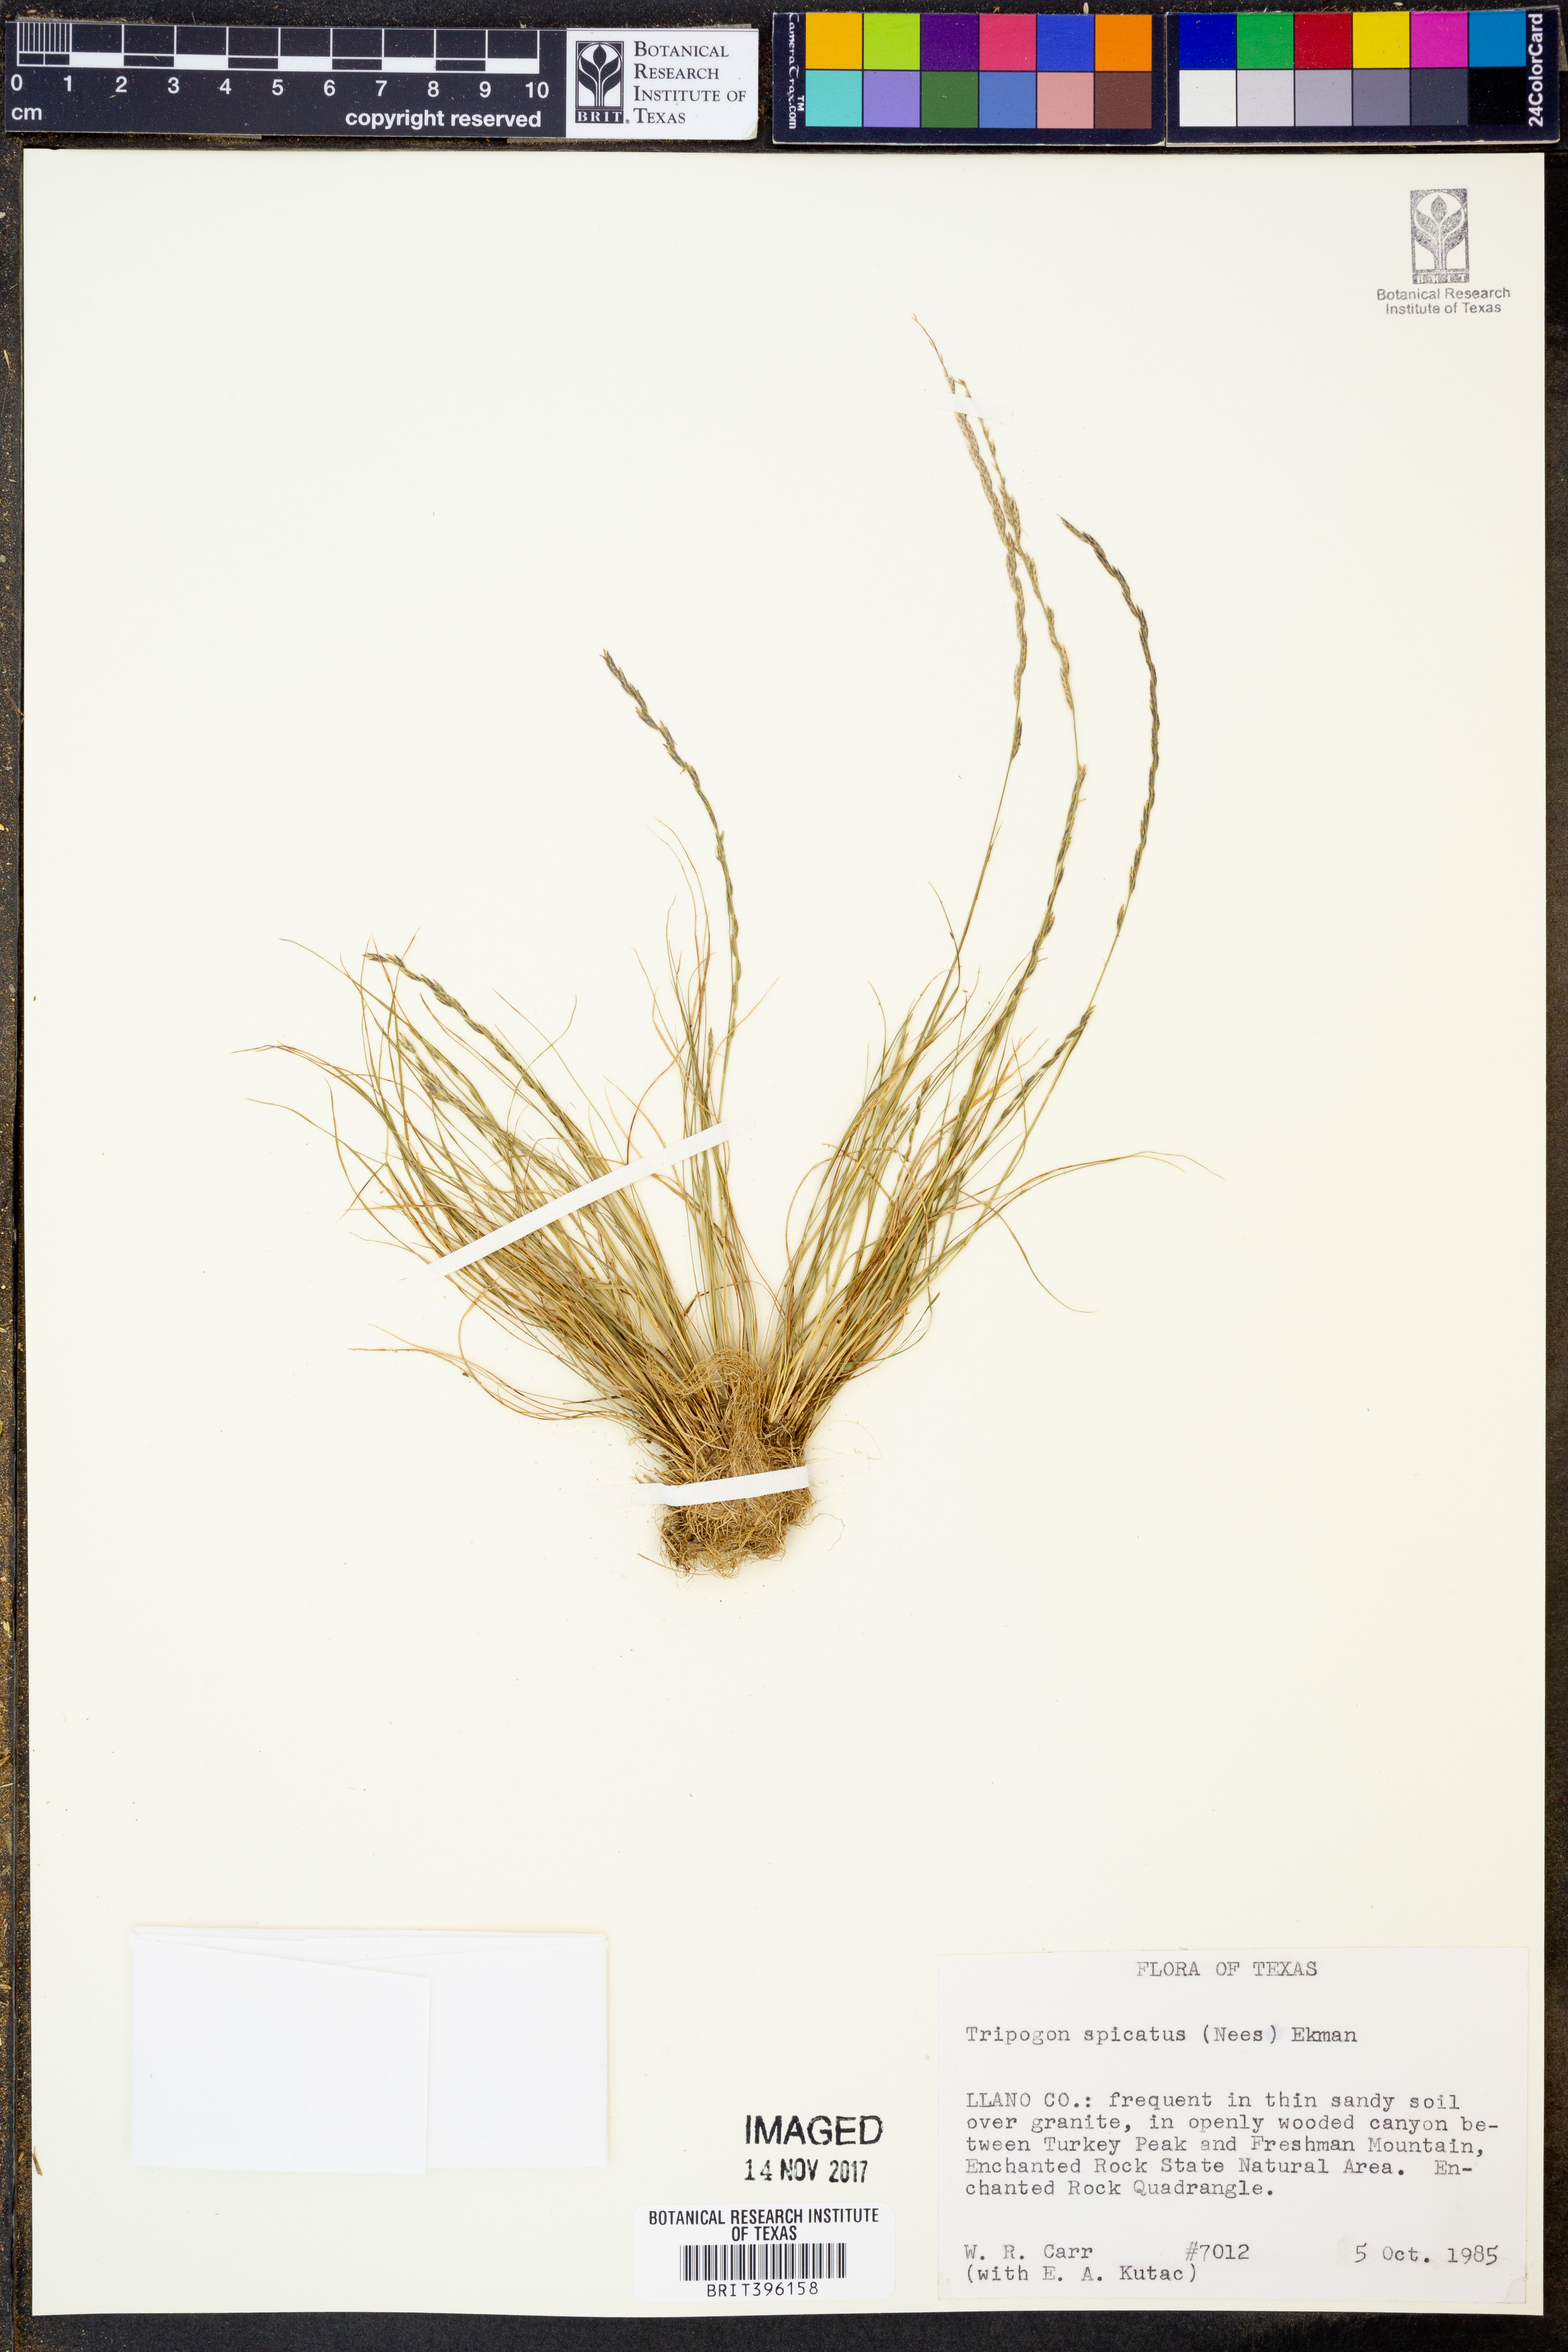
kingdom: Plantae
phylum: Tracheophyta
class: Liliopsida
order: Poales
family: Poaceae
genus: Tripogonella
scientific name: Tripogonella spicata
